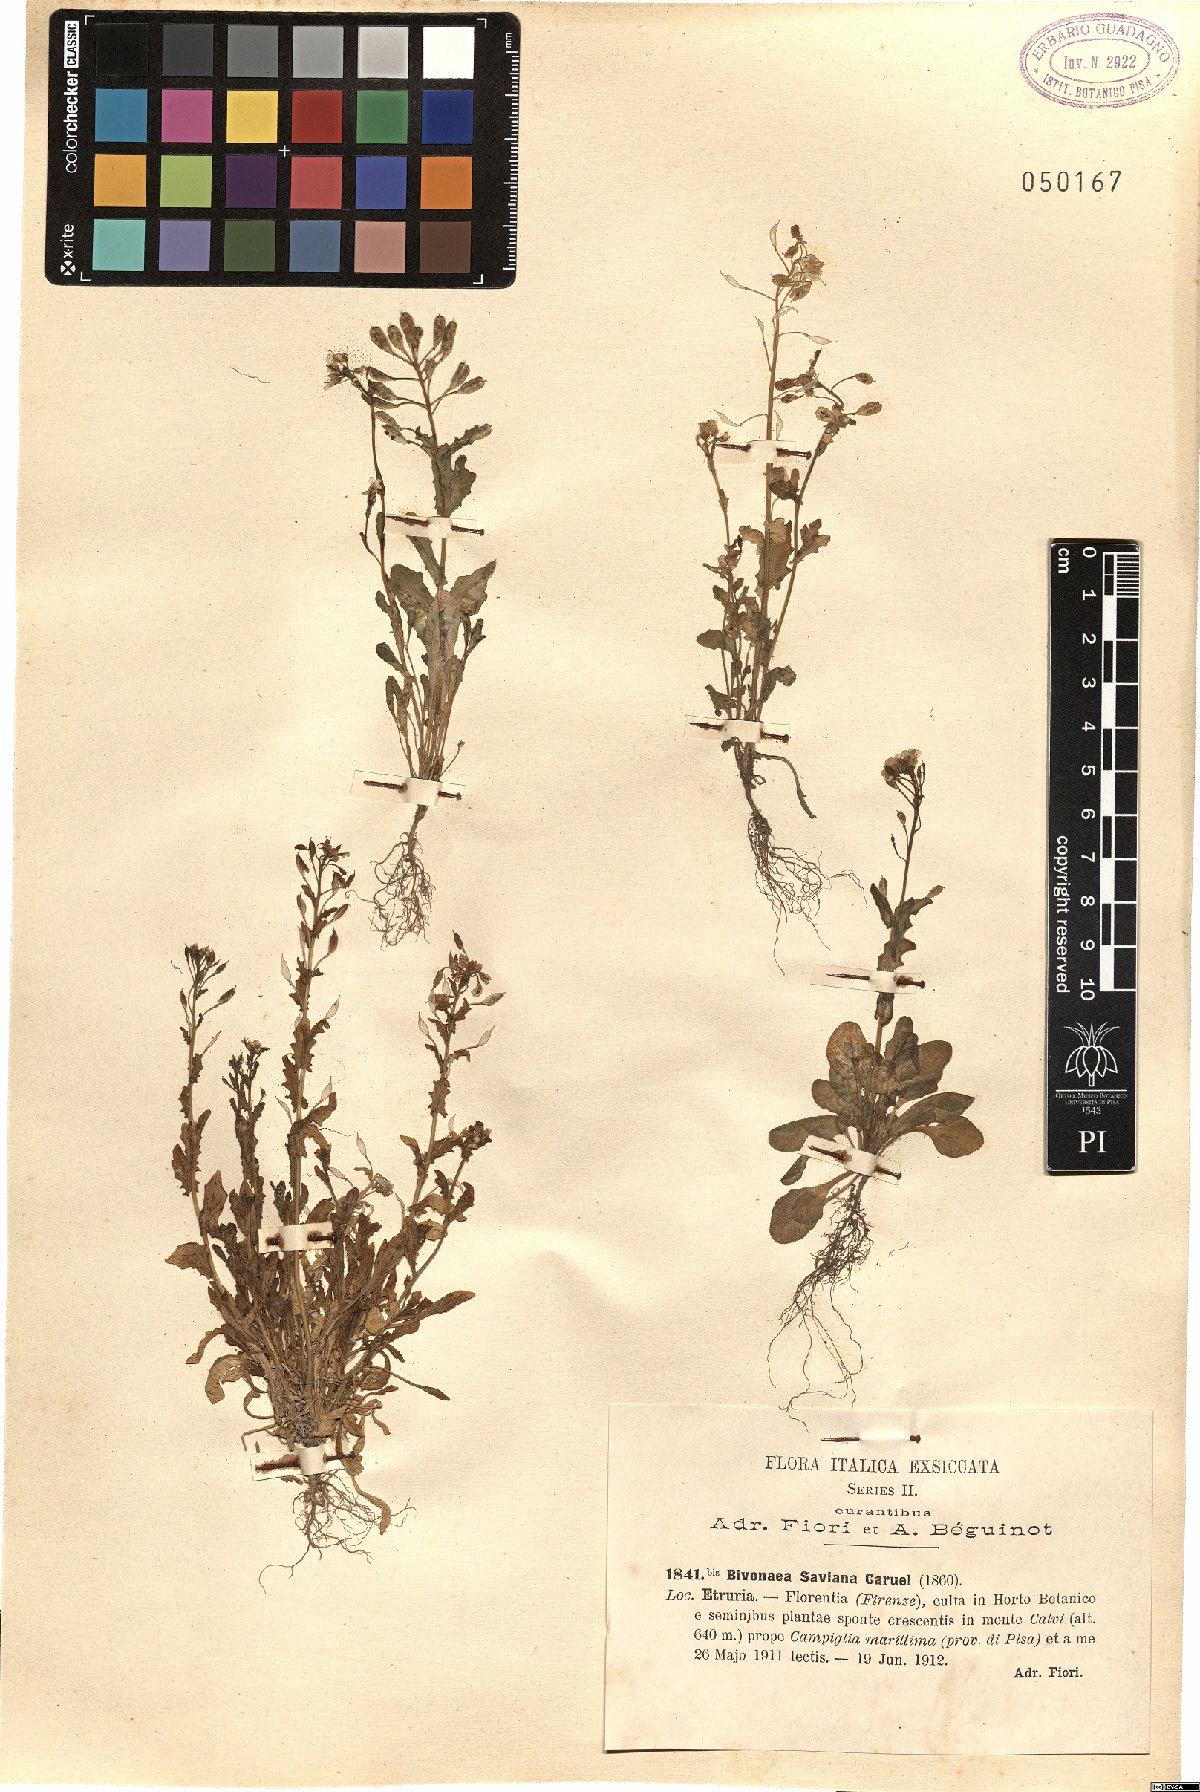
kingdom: Plantae
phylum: Tracheophyta
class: Magnoliopsida
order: Brassicales
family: Brassicaceae
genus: Ionopsidium
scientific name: Ionopsidium savianum
